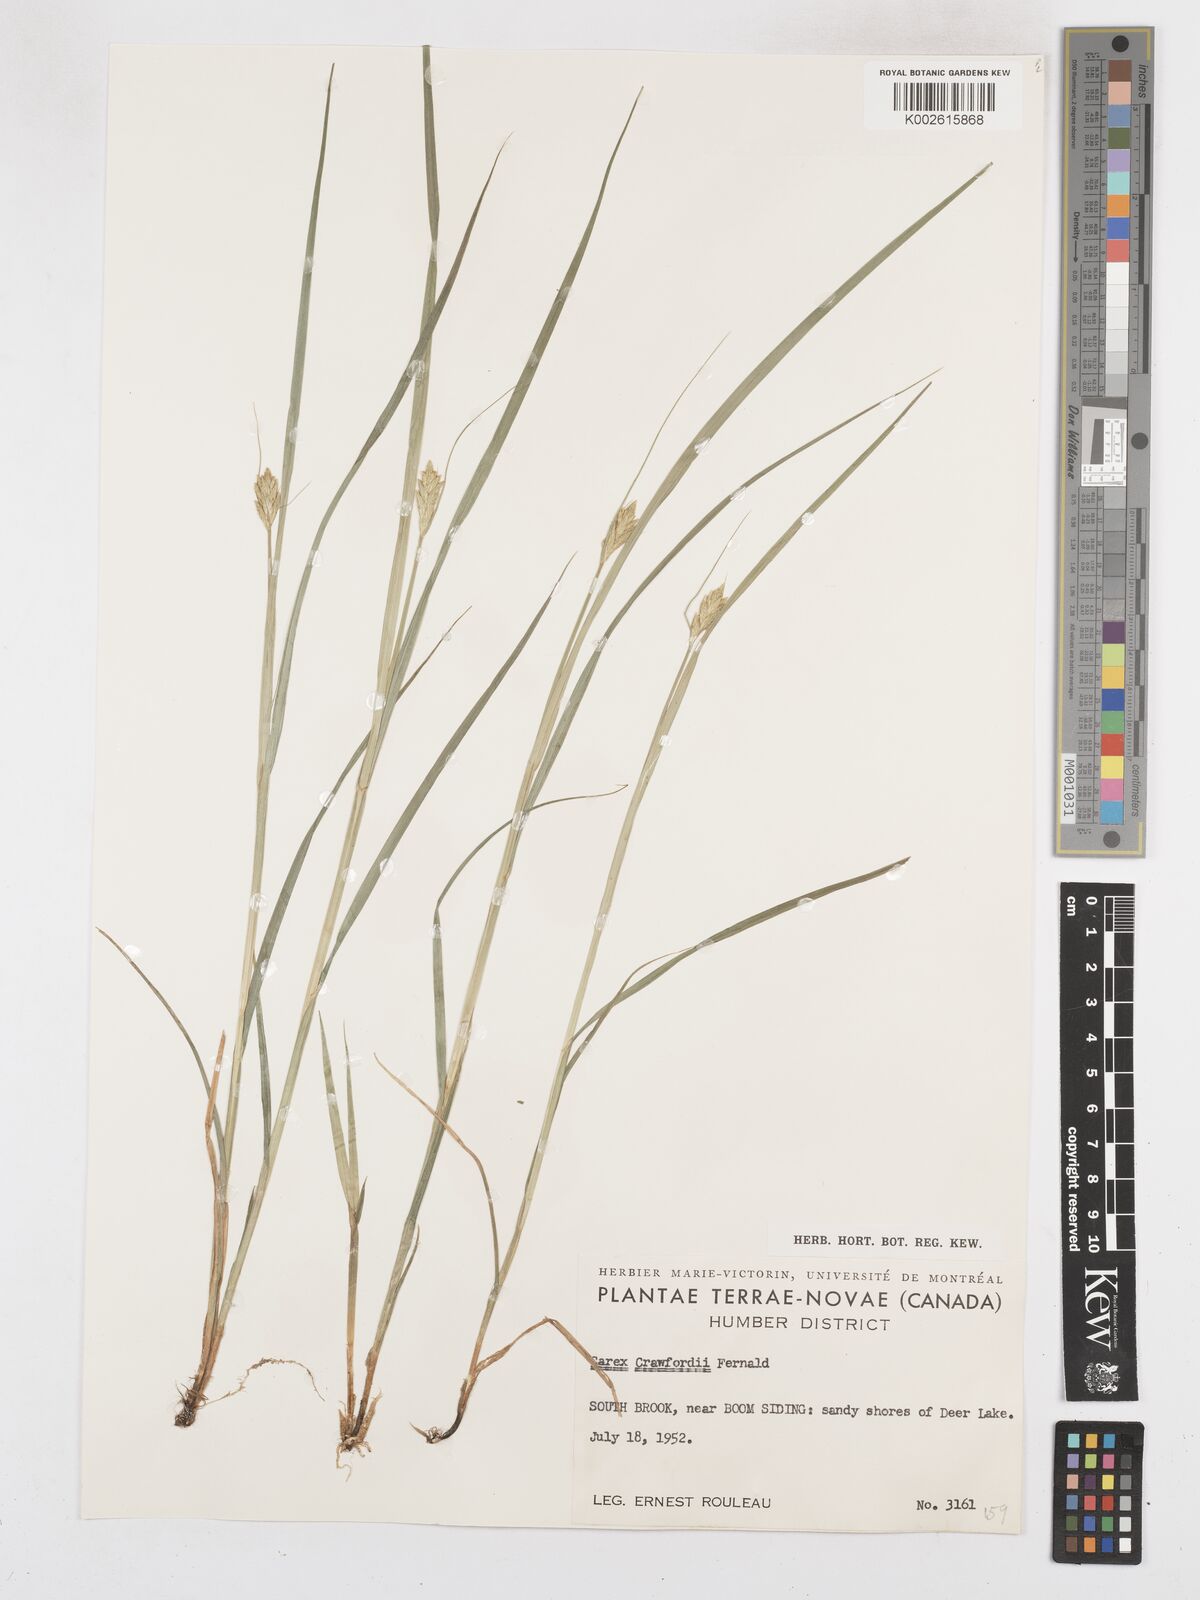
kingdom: Plantae
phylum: Tracheophyta
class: Liliopsida
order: Poales
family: Cyperaceae
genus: Carex
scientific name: Carex crawfordii
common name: Crawford's sedge
